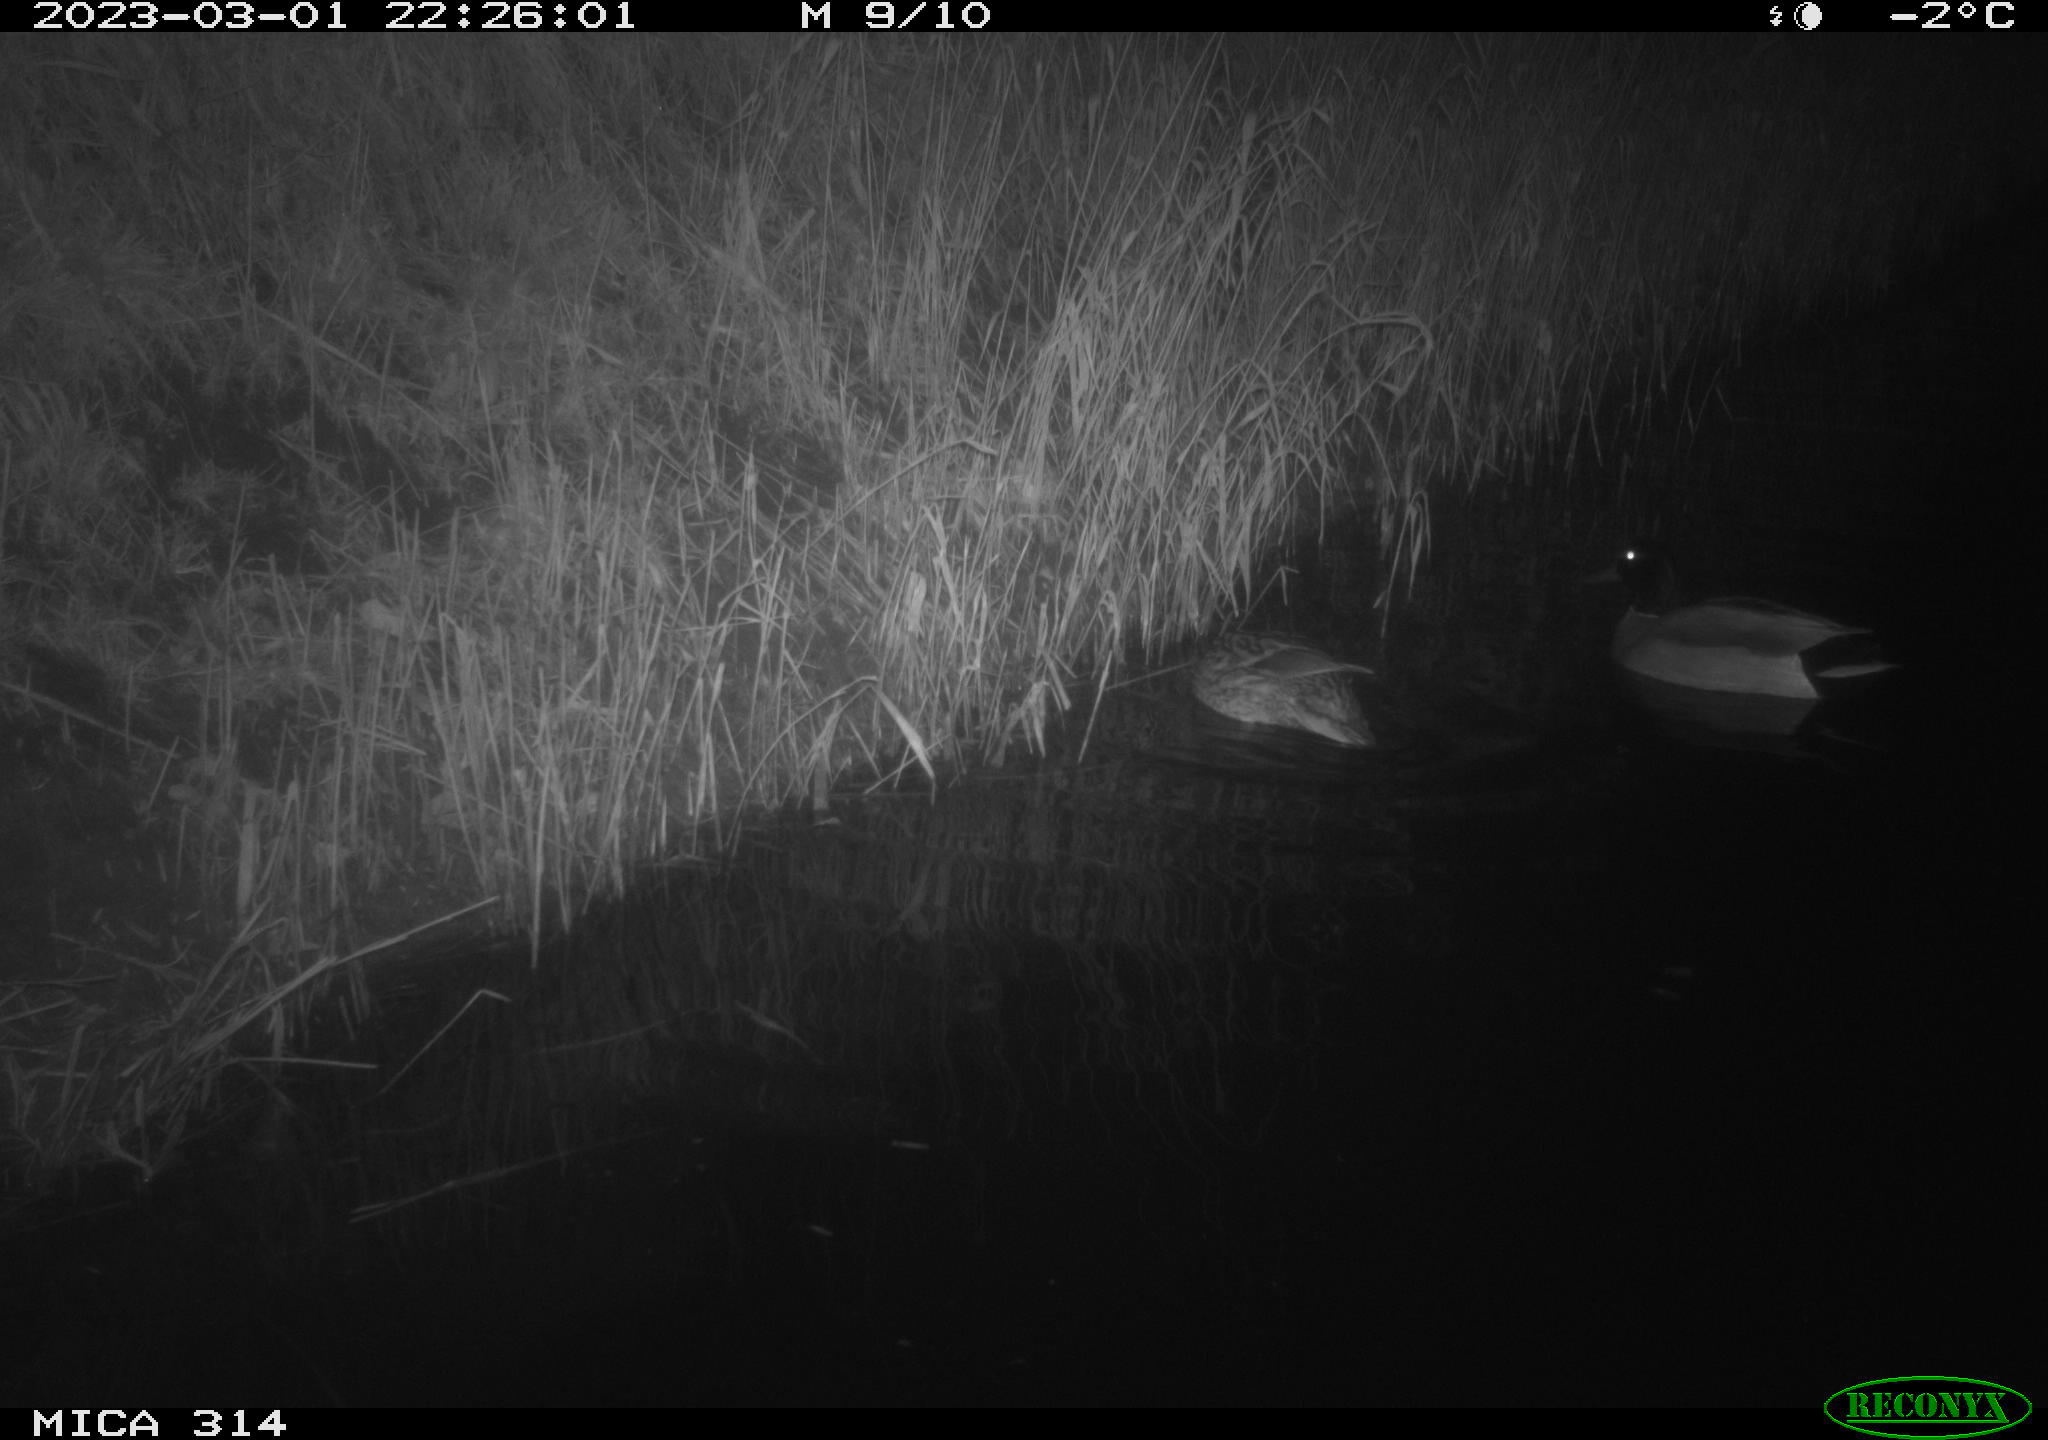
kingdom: Animalia
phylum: Chordata
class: Aves
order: Anseriformes
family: Anatidae
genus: Anas
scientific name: Anas
